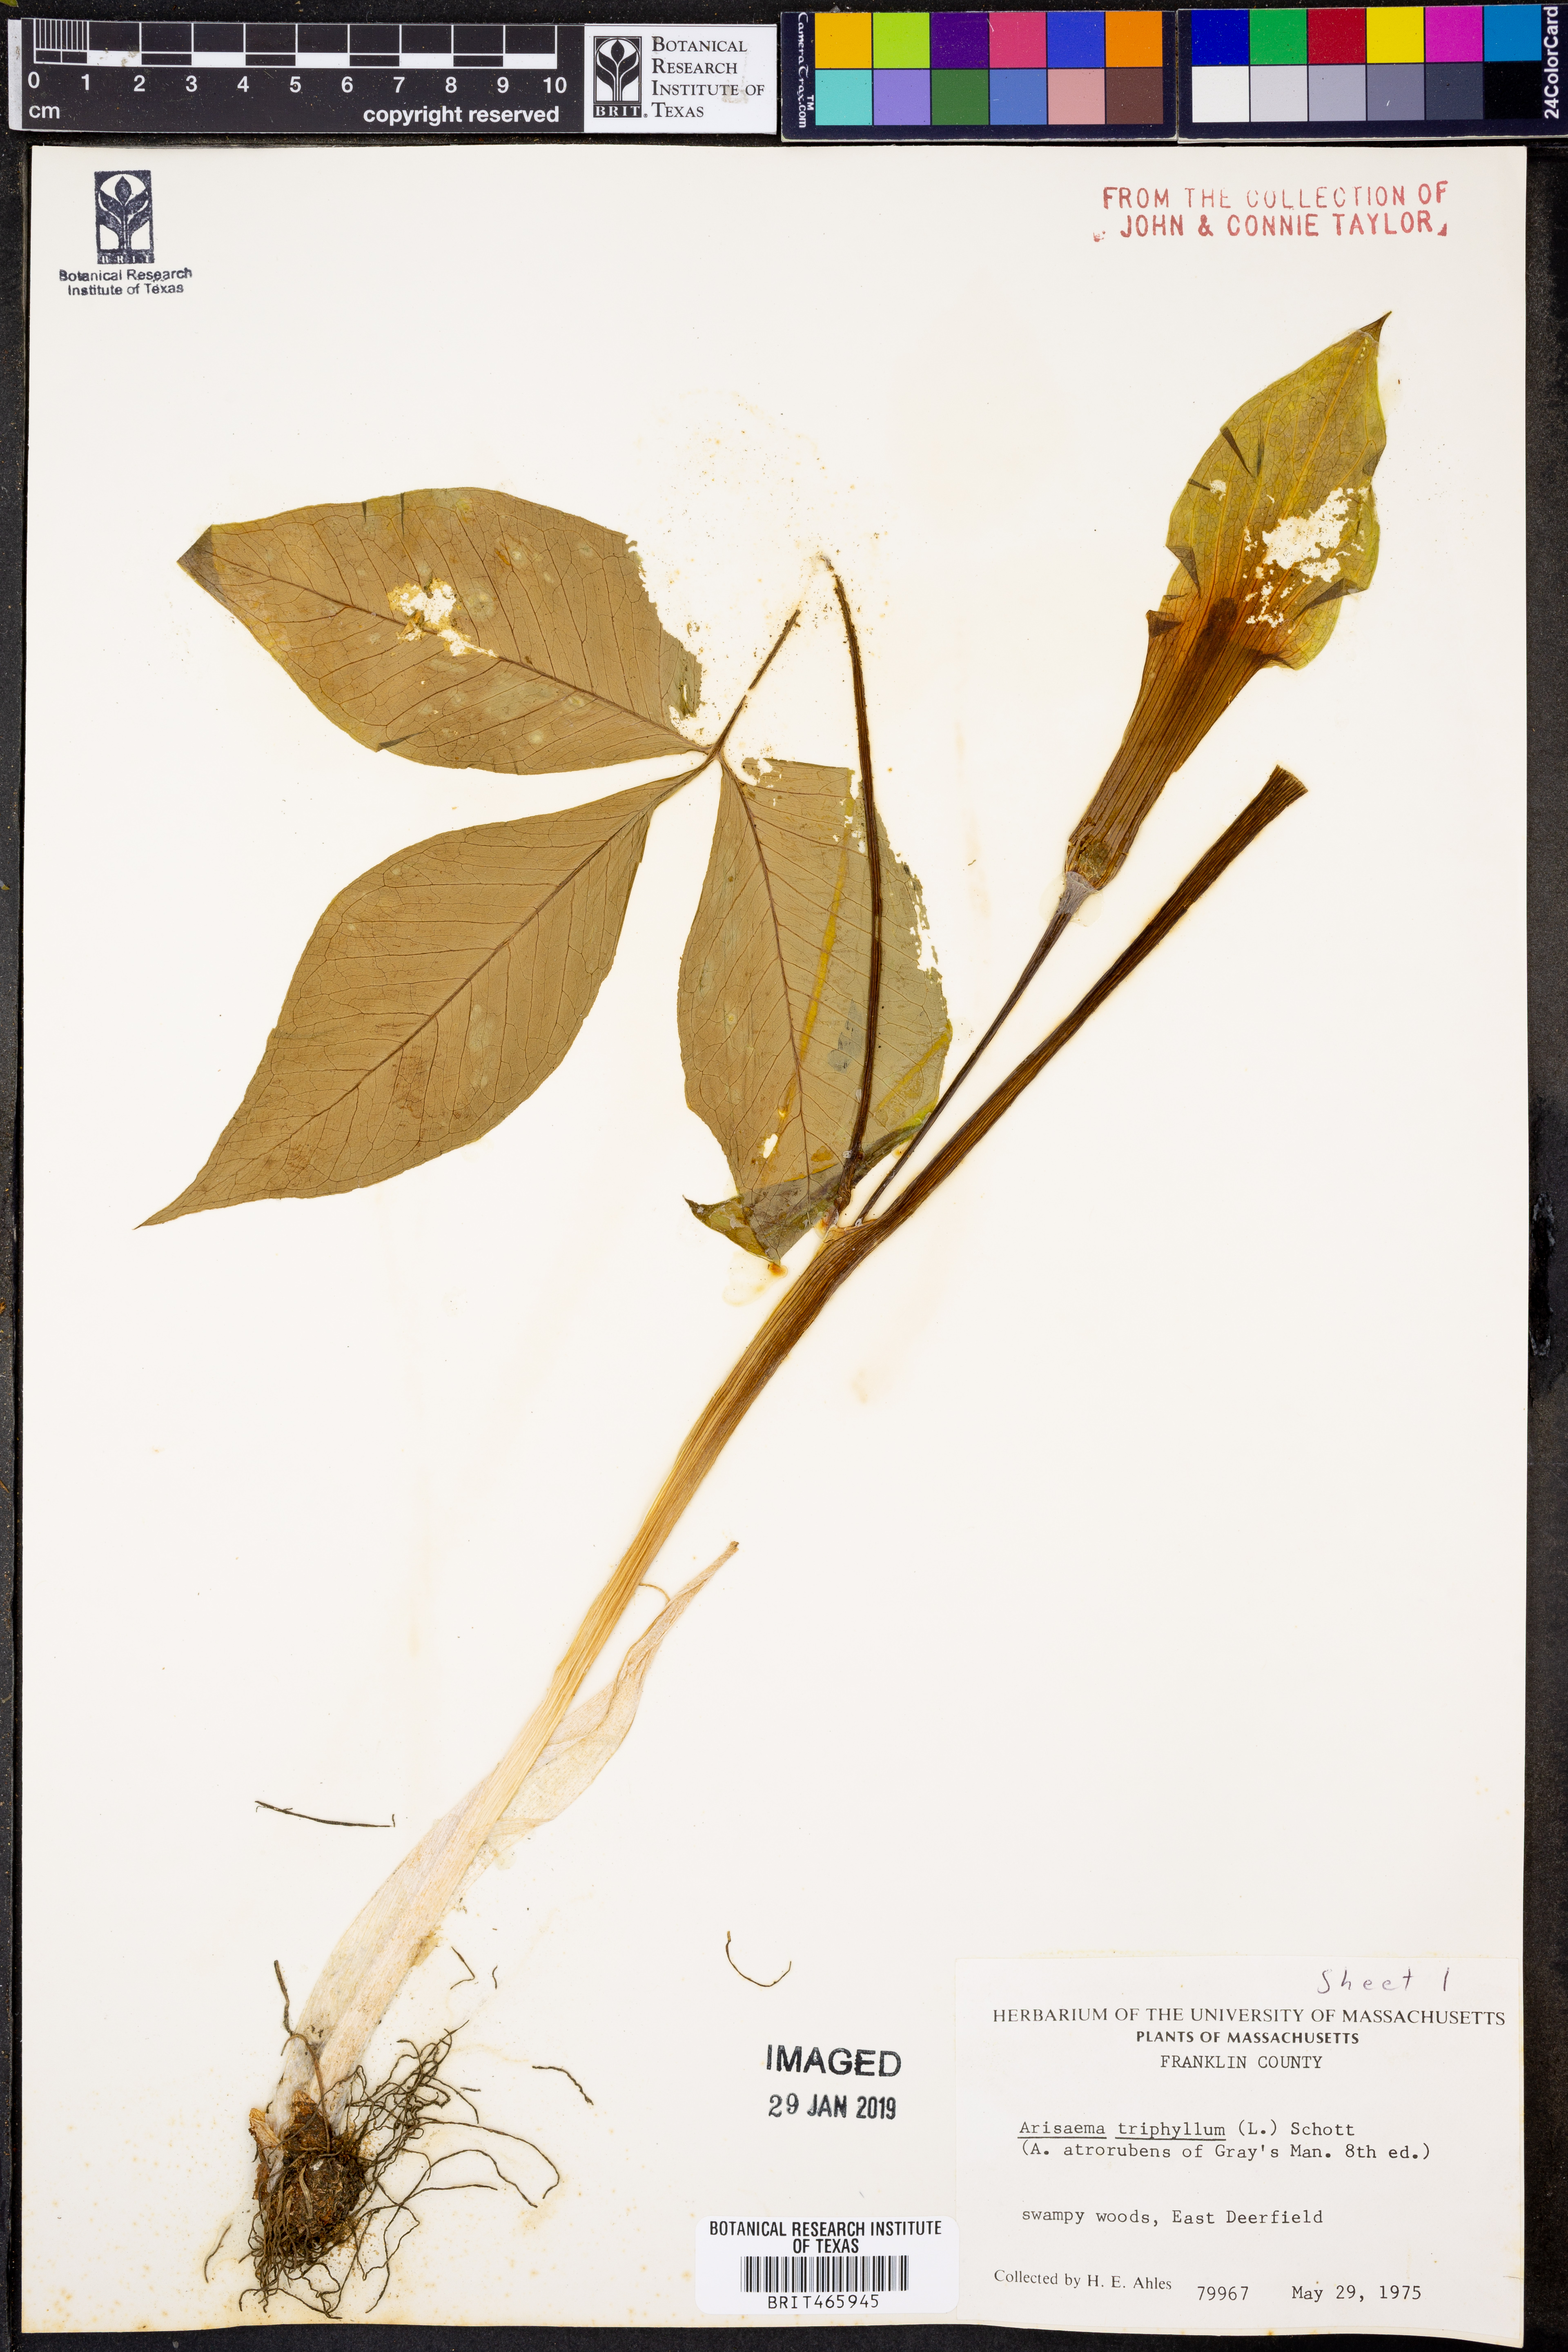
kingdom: Plantae
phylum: Tracheophyta
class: Liliopsida
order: Alismatales
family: Araceae
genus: Arisaema
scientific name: Arisaema triphyllum
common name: Jack-in-the-pulpit
